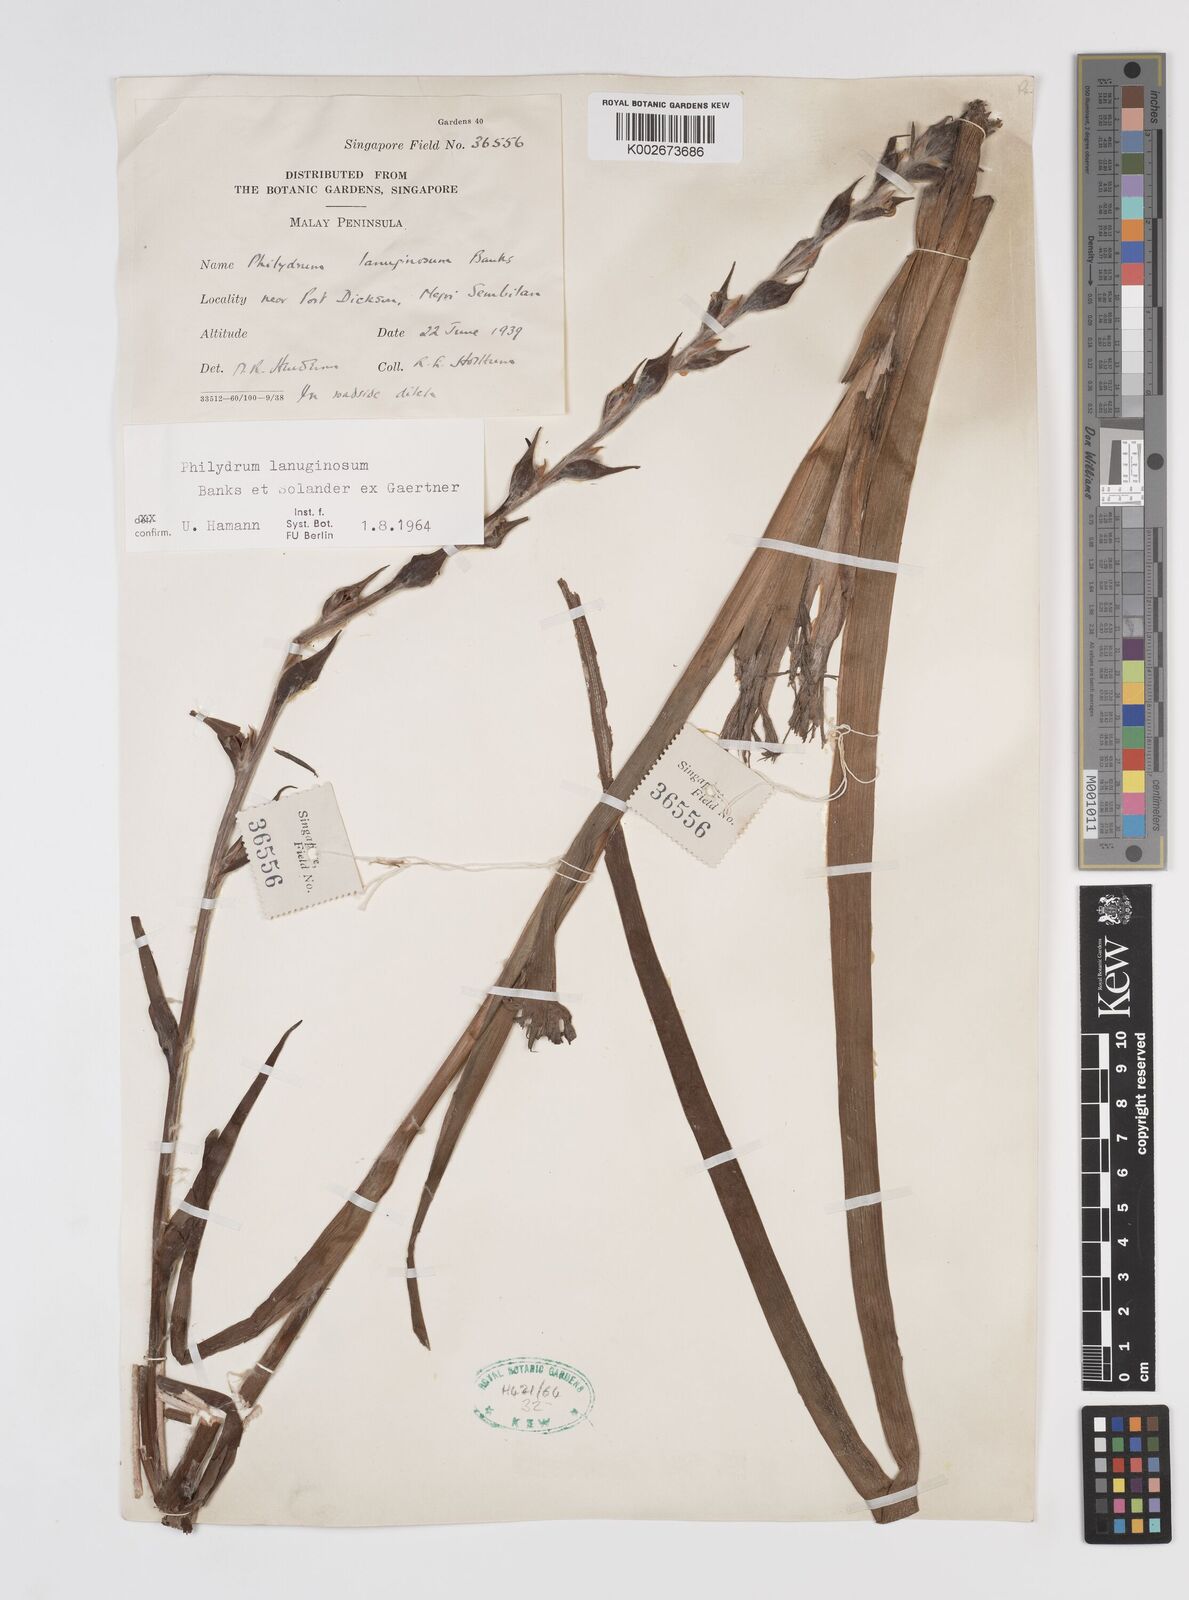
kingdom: Plantae
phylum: Tracheophyta
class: Liliopsida
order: Commelinales
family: Philydraceae
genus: Philydrum
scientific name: Philydrum lanuginosum
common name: Woolly frog's mouth
